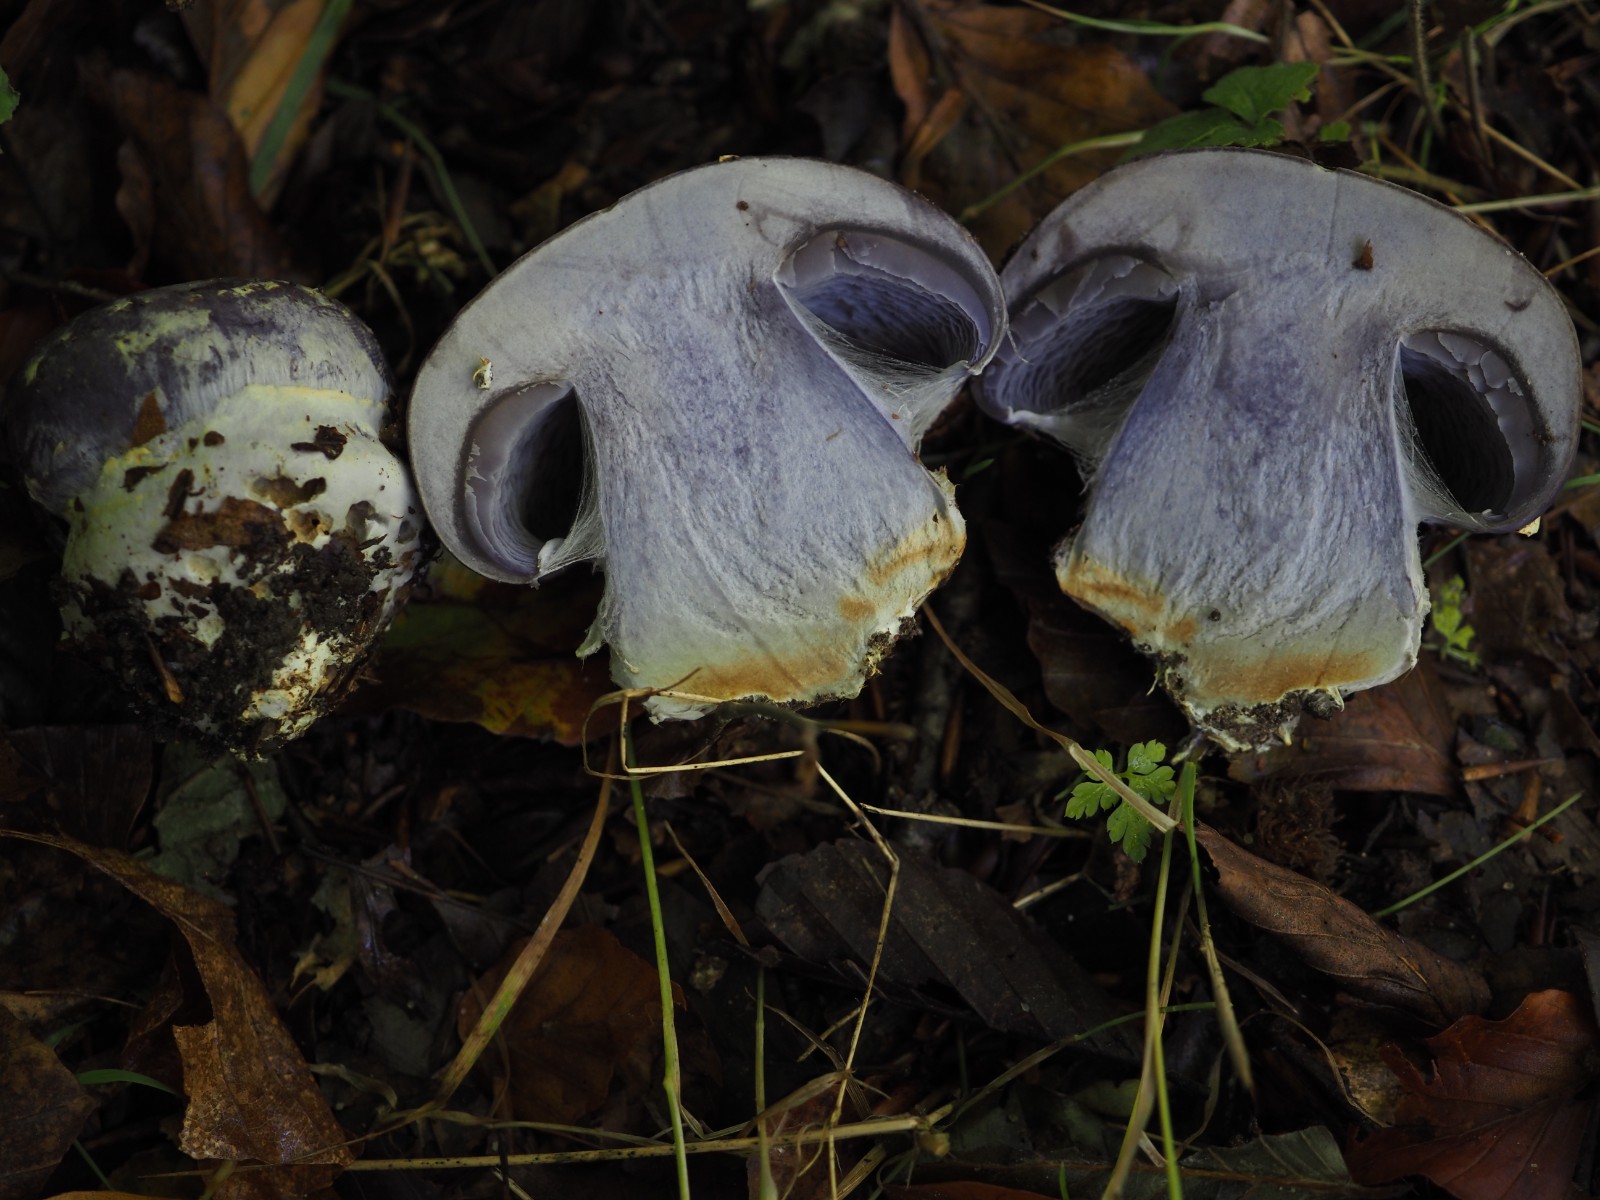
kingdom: Fungi
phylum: Basidiomycota
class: Agaricomycetes
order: Agaricales
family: Cortinariaceae
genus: Cortinarius
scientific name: Cortinarius caerulescens
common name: blåkødet slørhat
